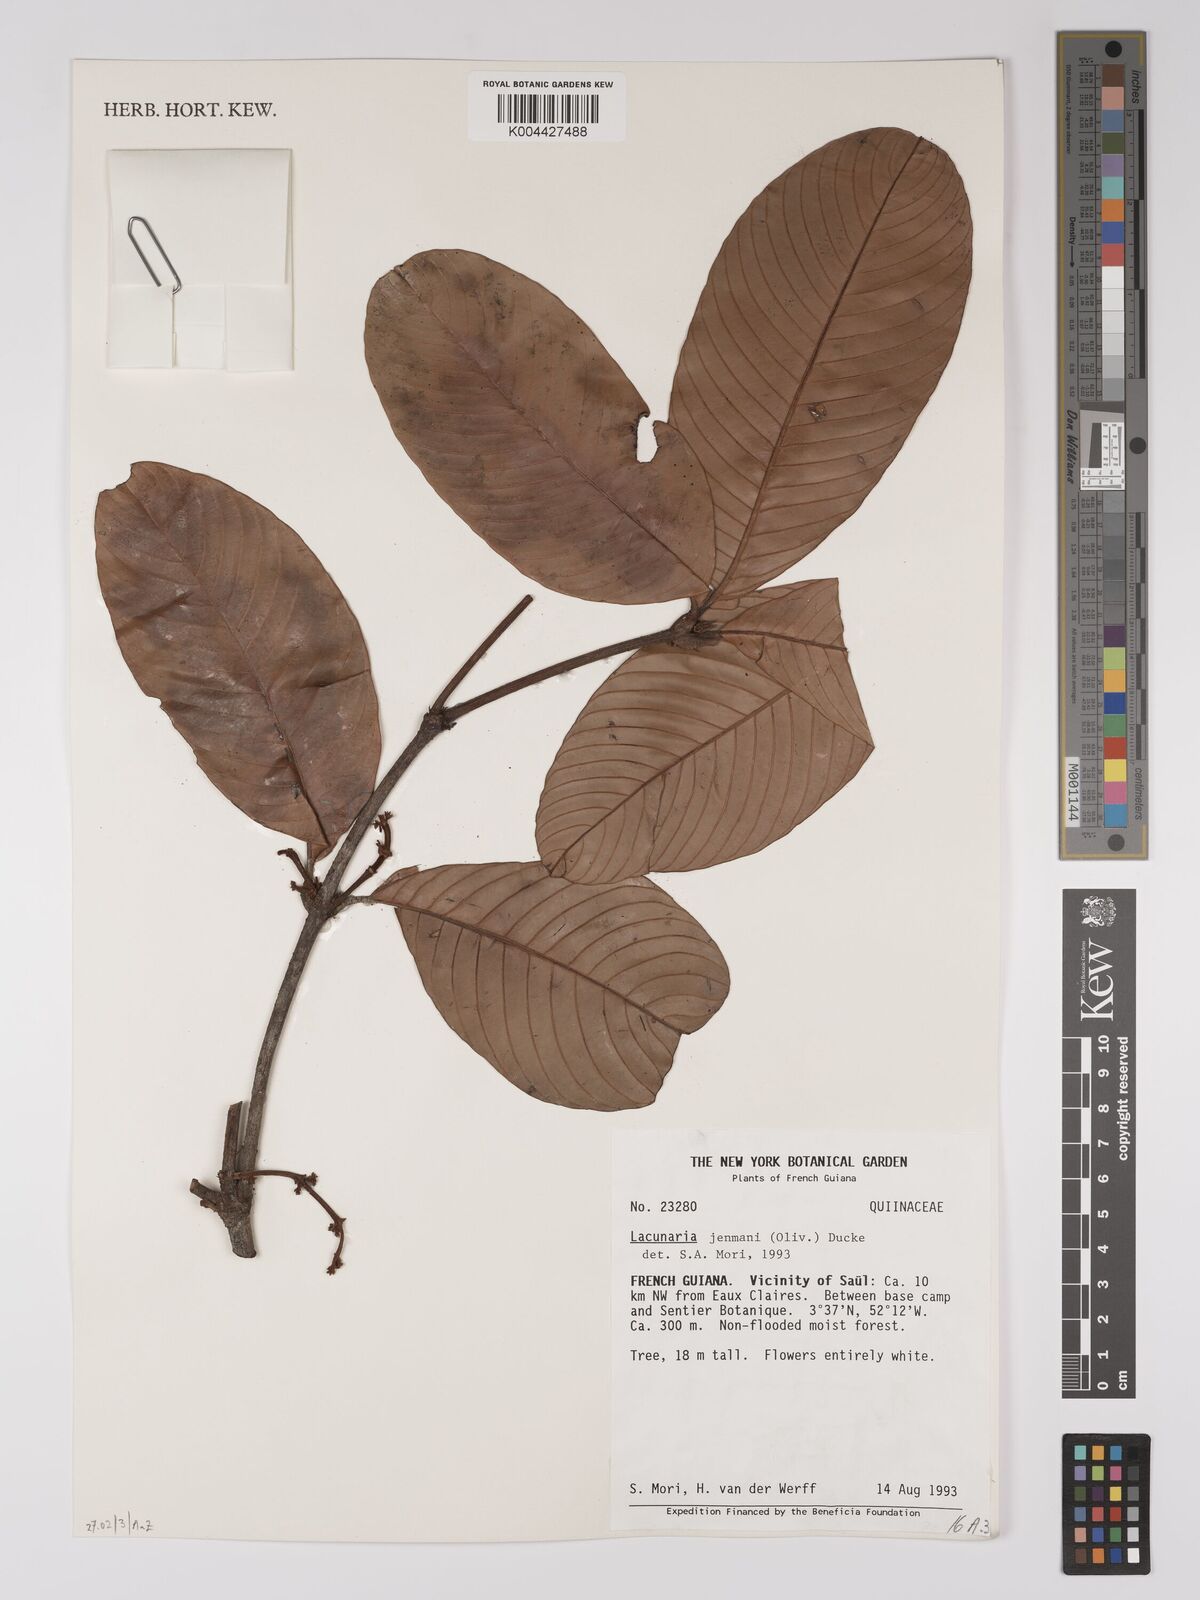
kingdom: Plantae
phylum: Tracheophyta
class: Magnoliopsida
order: Malpighiales
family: Quiinaceae
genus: Lacunaria
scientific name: Lacunaria jenmanii
